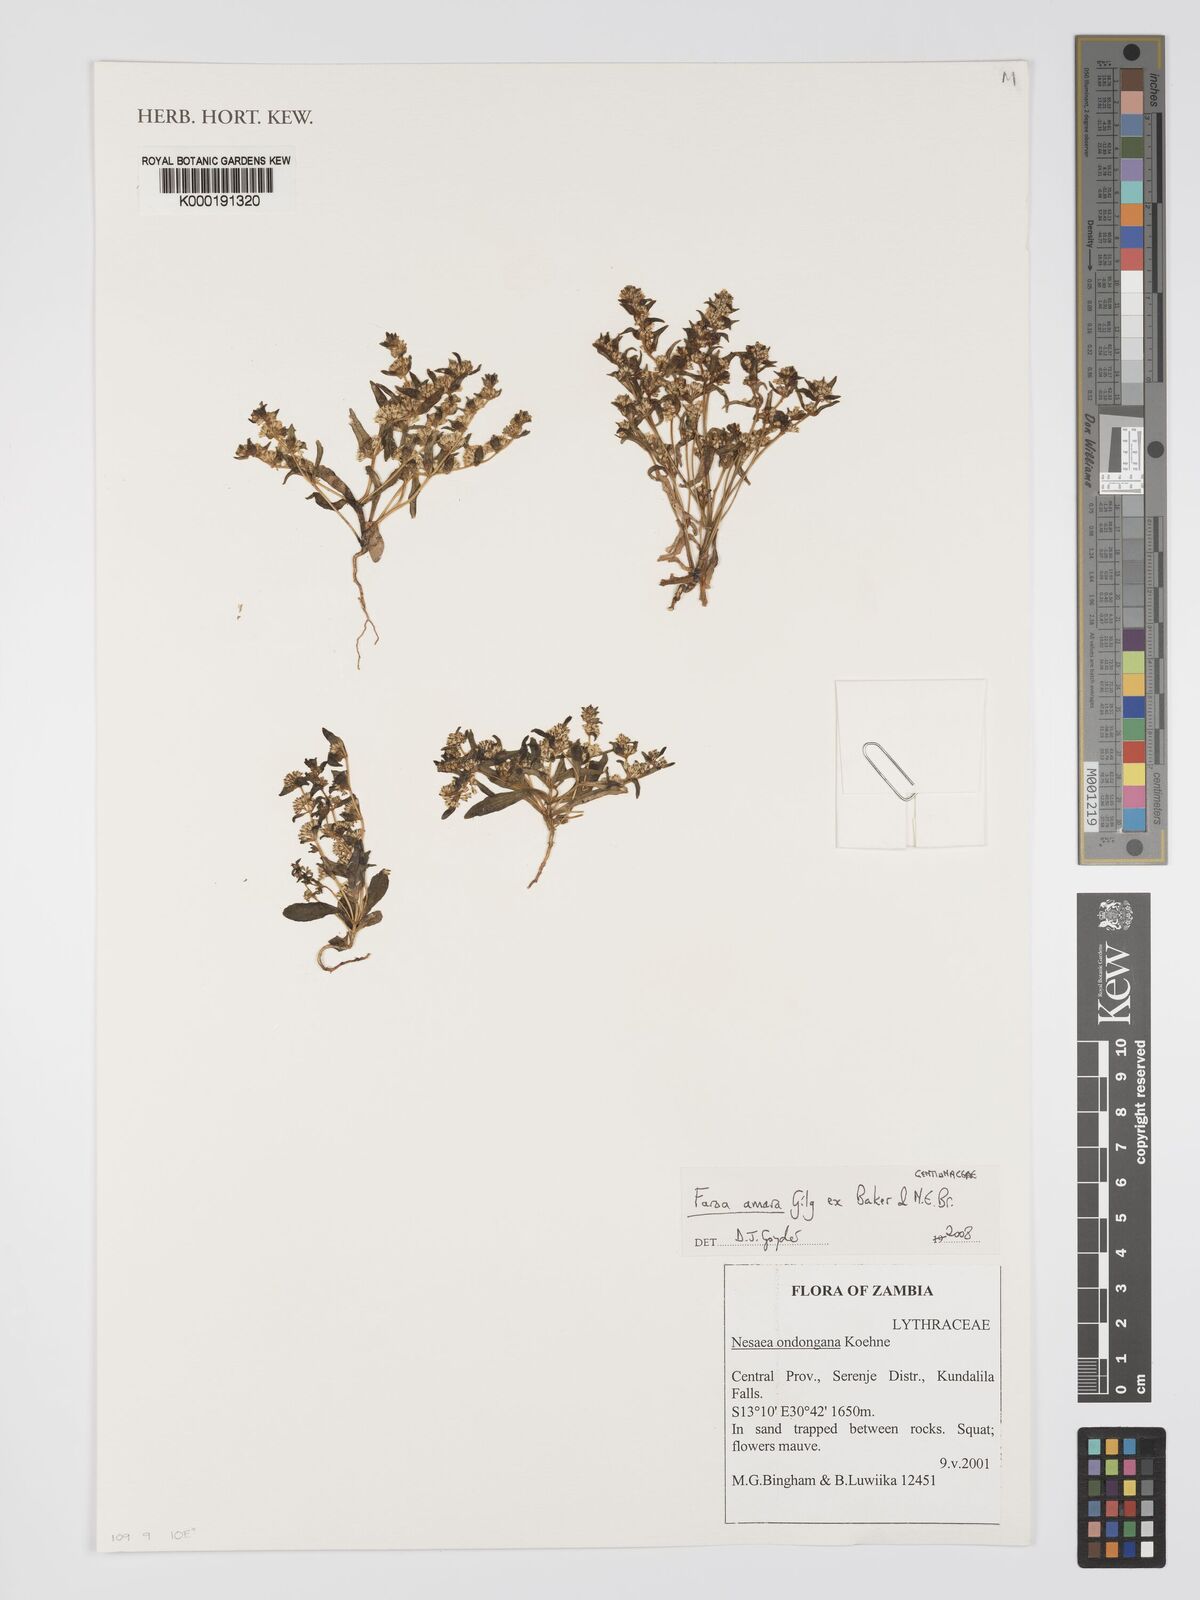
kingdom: Plantae
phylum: Tracheophyta
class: Magnoliopsida
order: Gentianales
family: Gentianaceae
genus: Faroa
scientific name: Faroa amara
